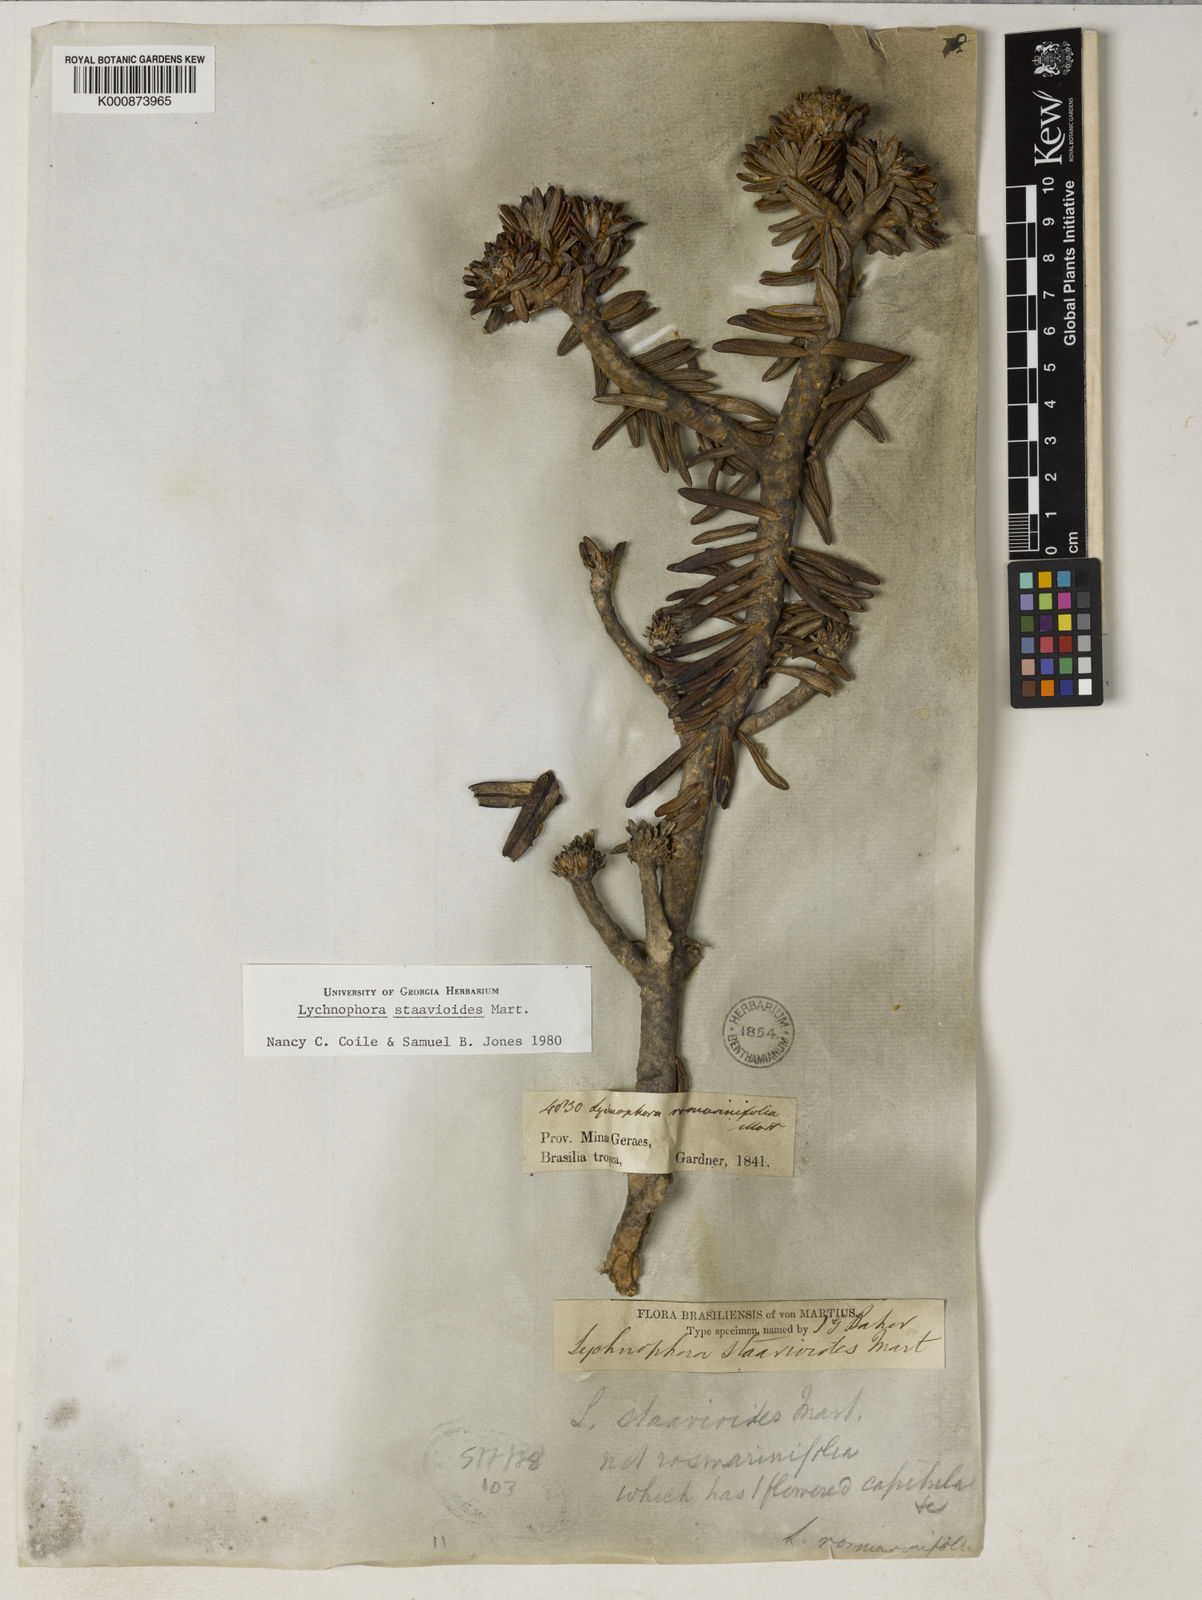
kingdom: Plantae
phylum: Tracheophyta
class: Magnoliopsida
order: Asterales
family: Asteraceae
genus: Lychnophora
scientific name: Lychnophora staavioides
